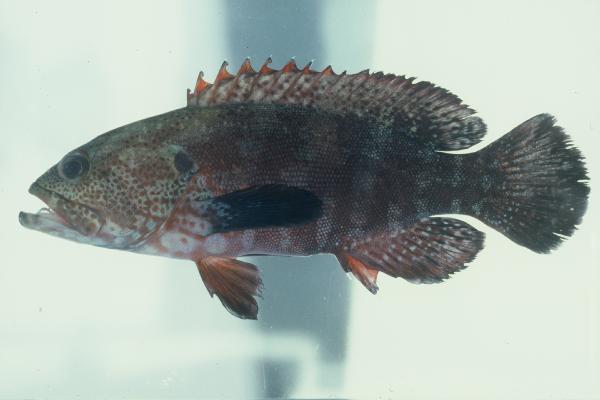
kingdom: Animalia
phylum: Chordata
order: Perciformes
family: Serranidae
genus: Cephalopholis
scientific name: Cephalopholis nigripinnis
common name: Duskyfin hind
